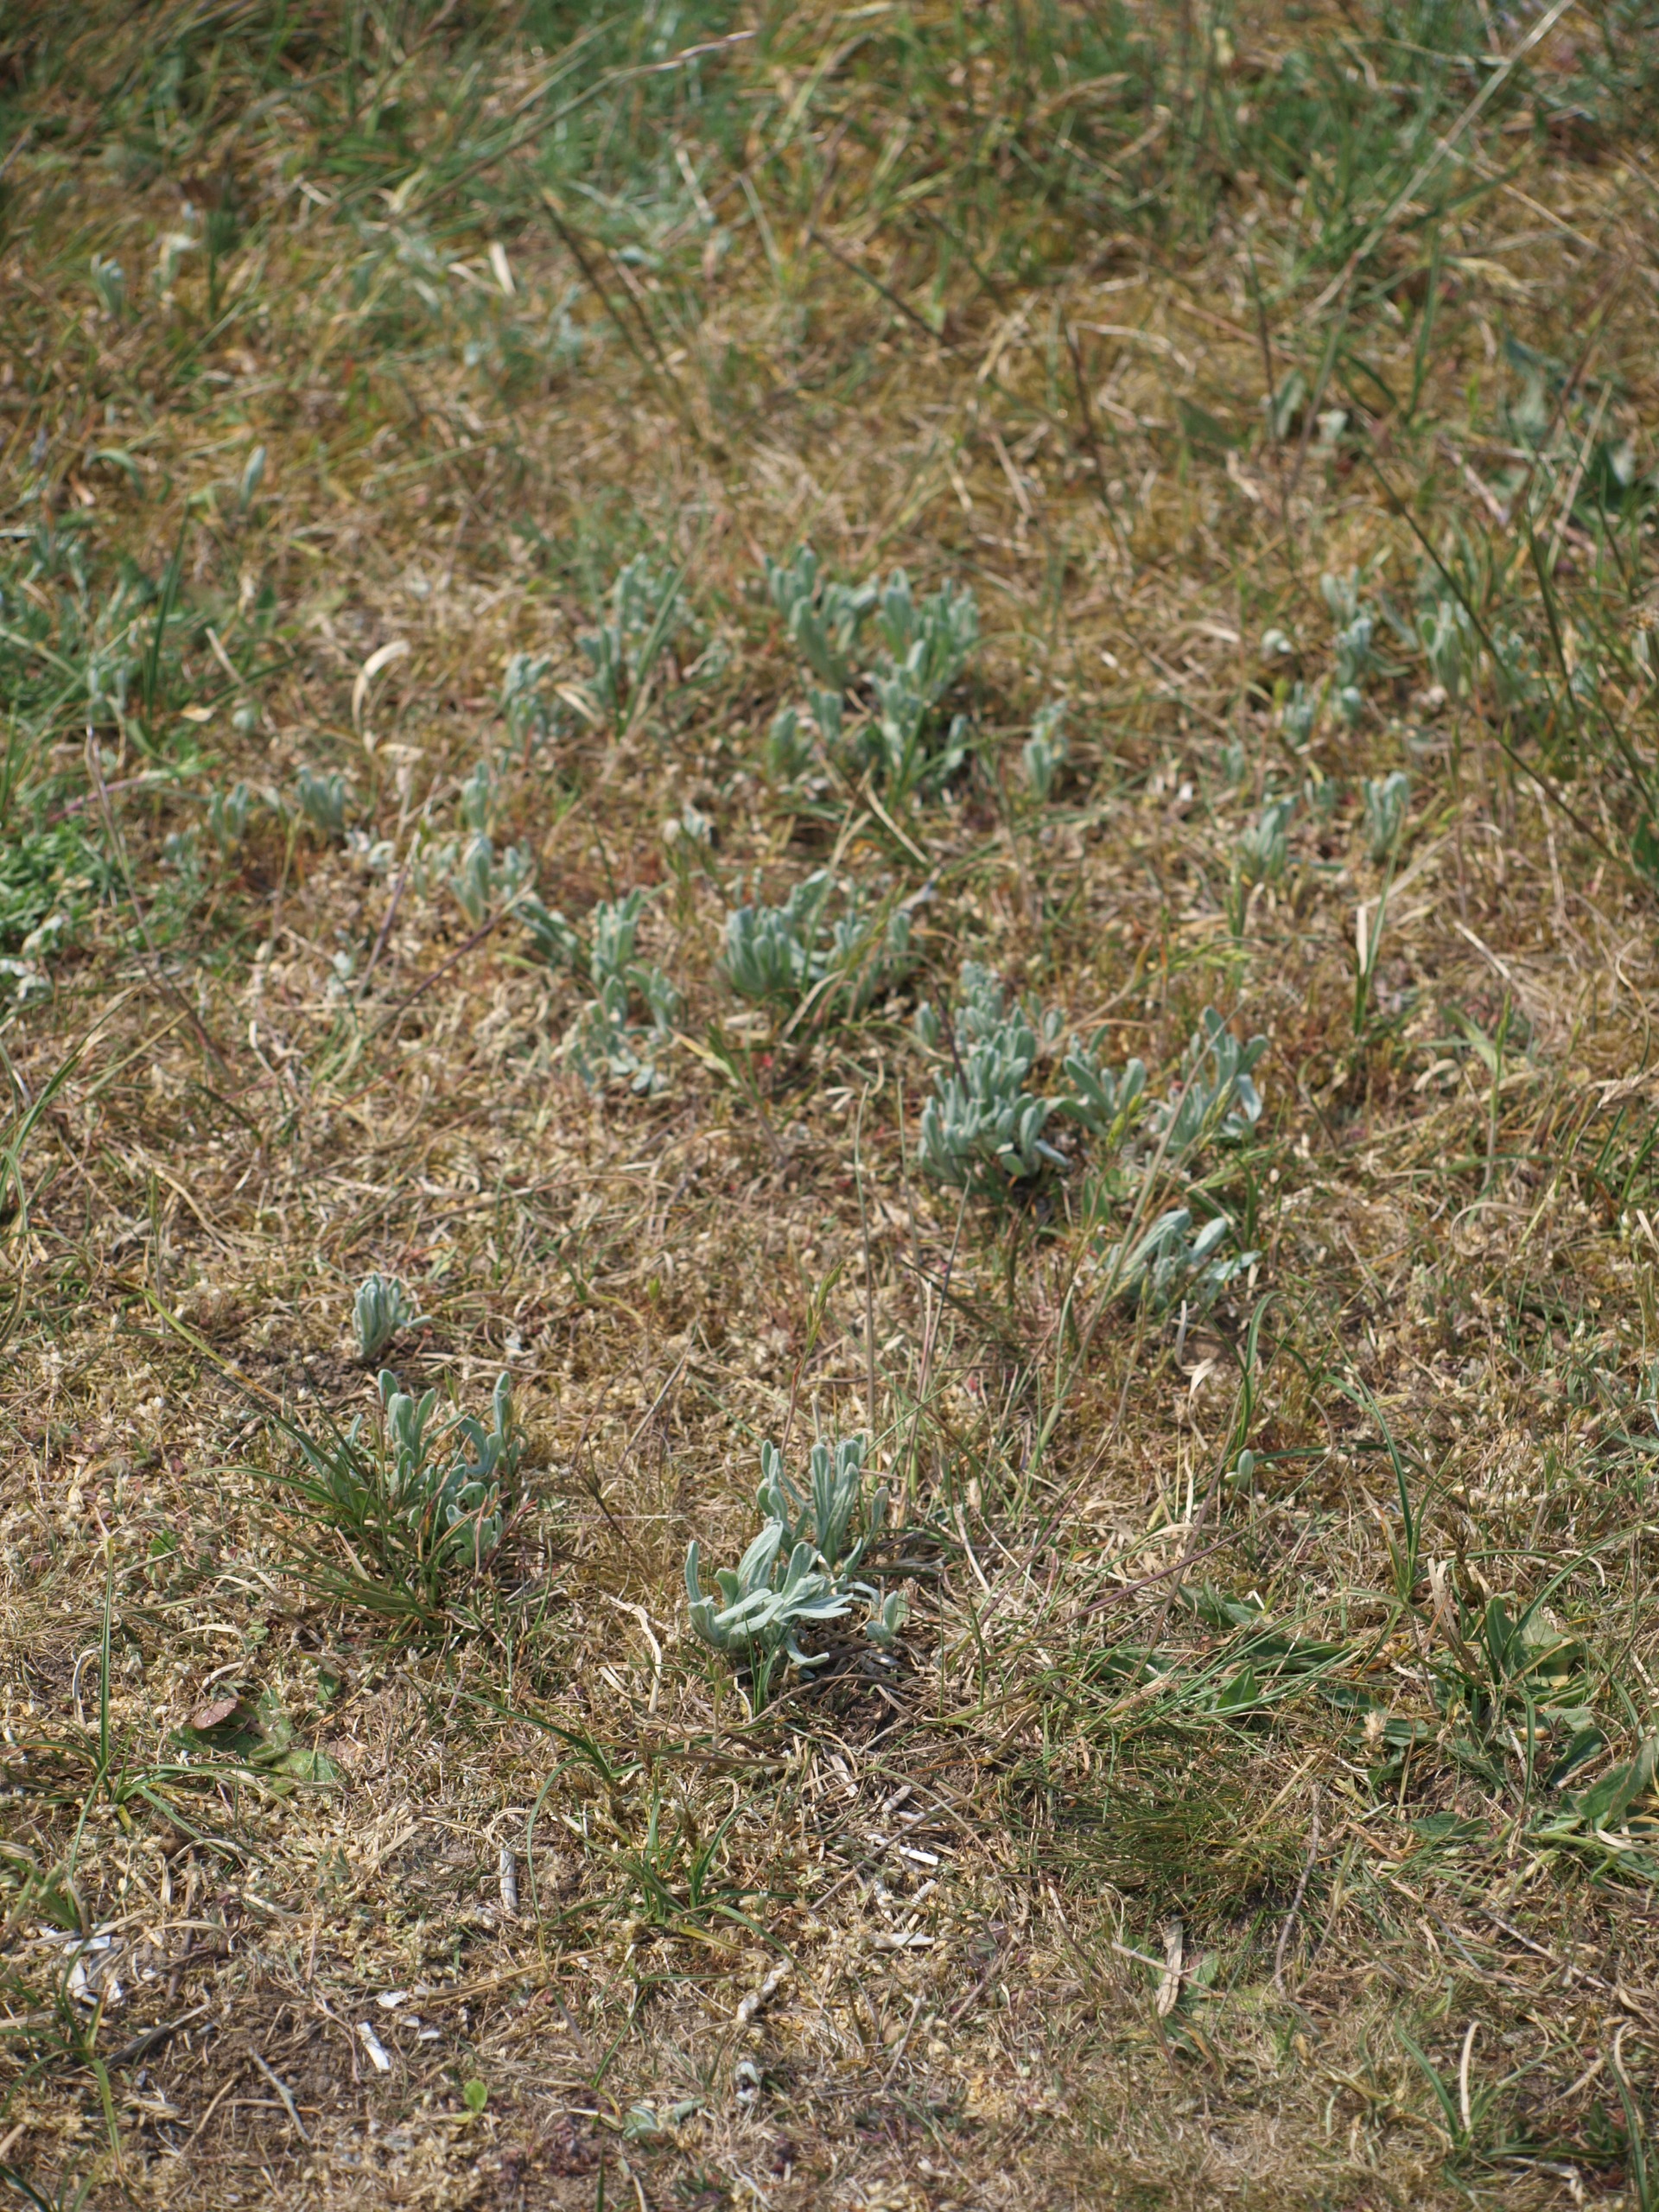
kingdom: Plantae
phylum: Tracheophyta
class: Magnoliopsida
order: Asterales
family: Asteraceae
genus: Helichrysum
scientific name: Helichrysum arenarium
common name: Gul evighedsblomst
